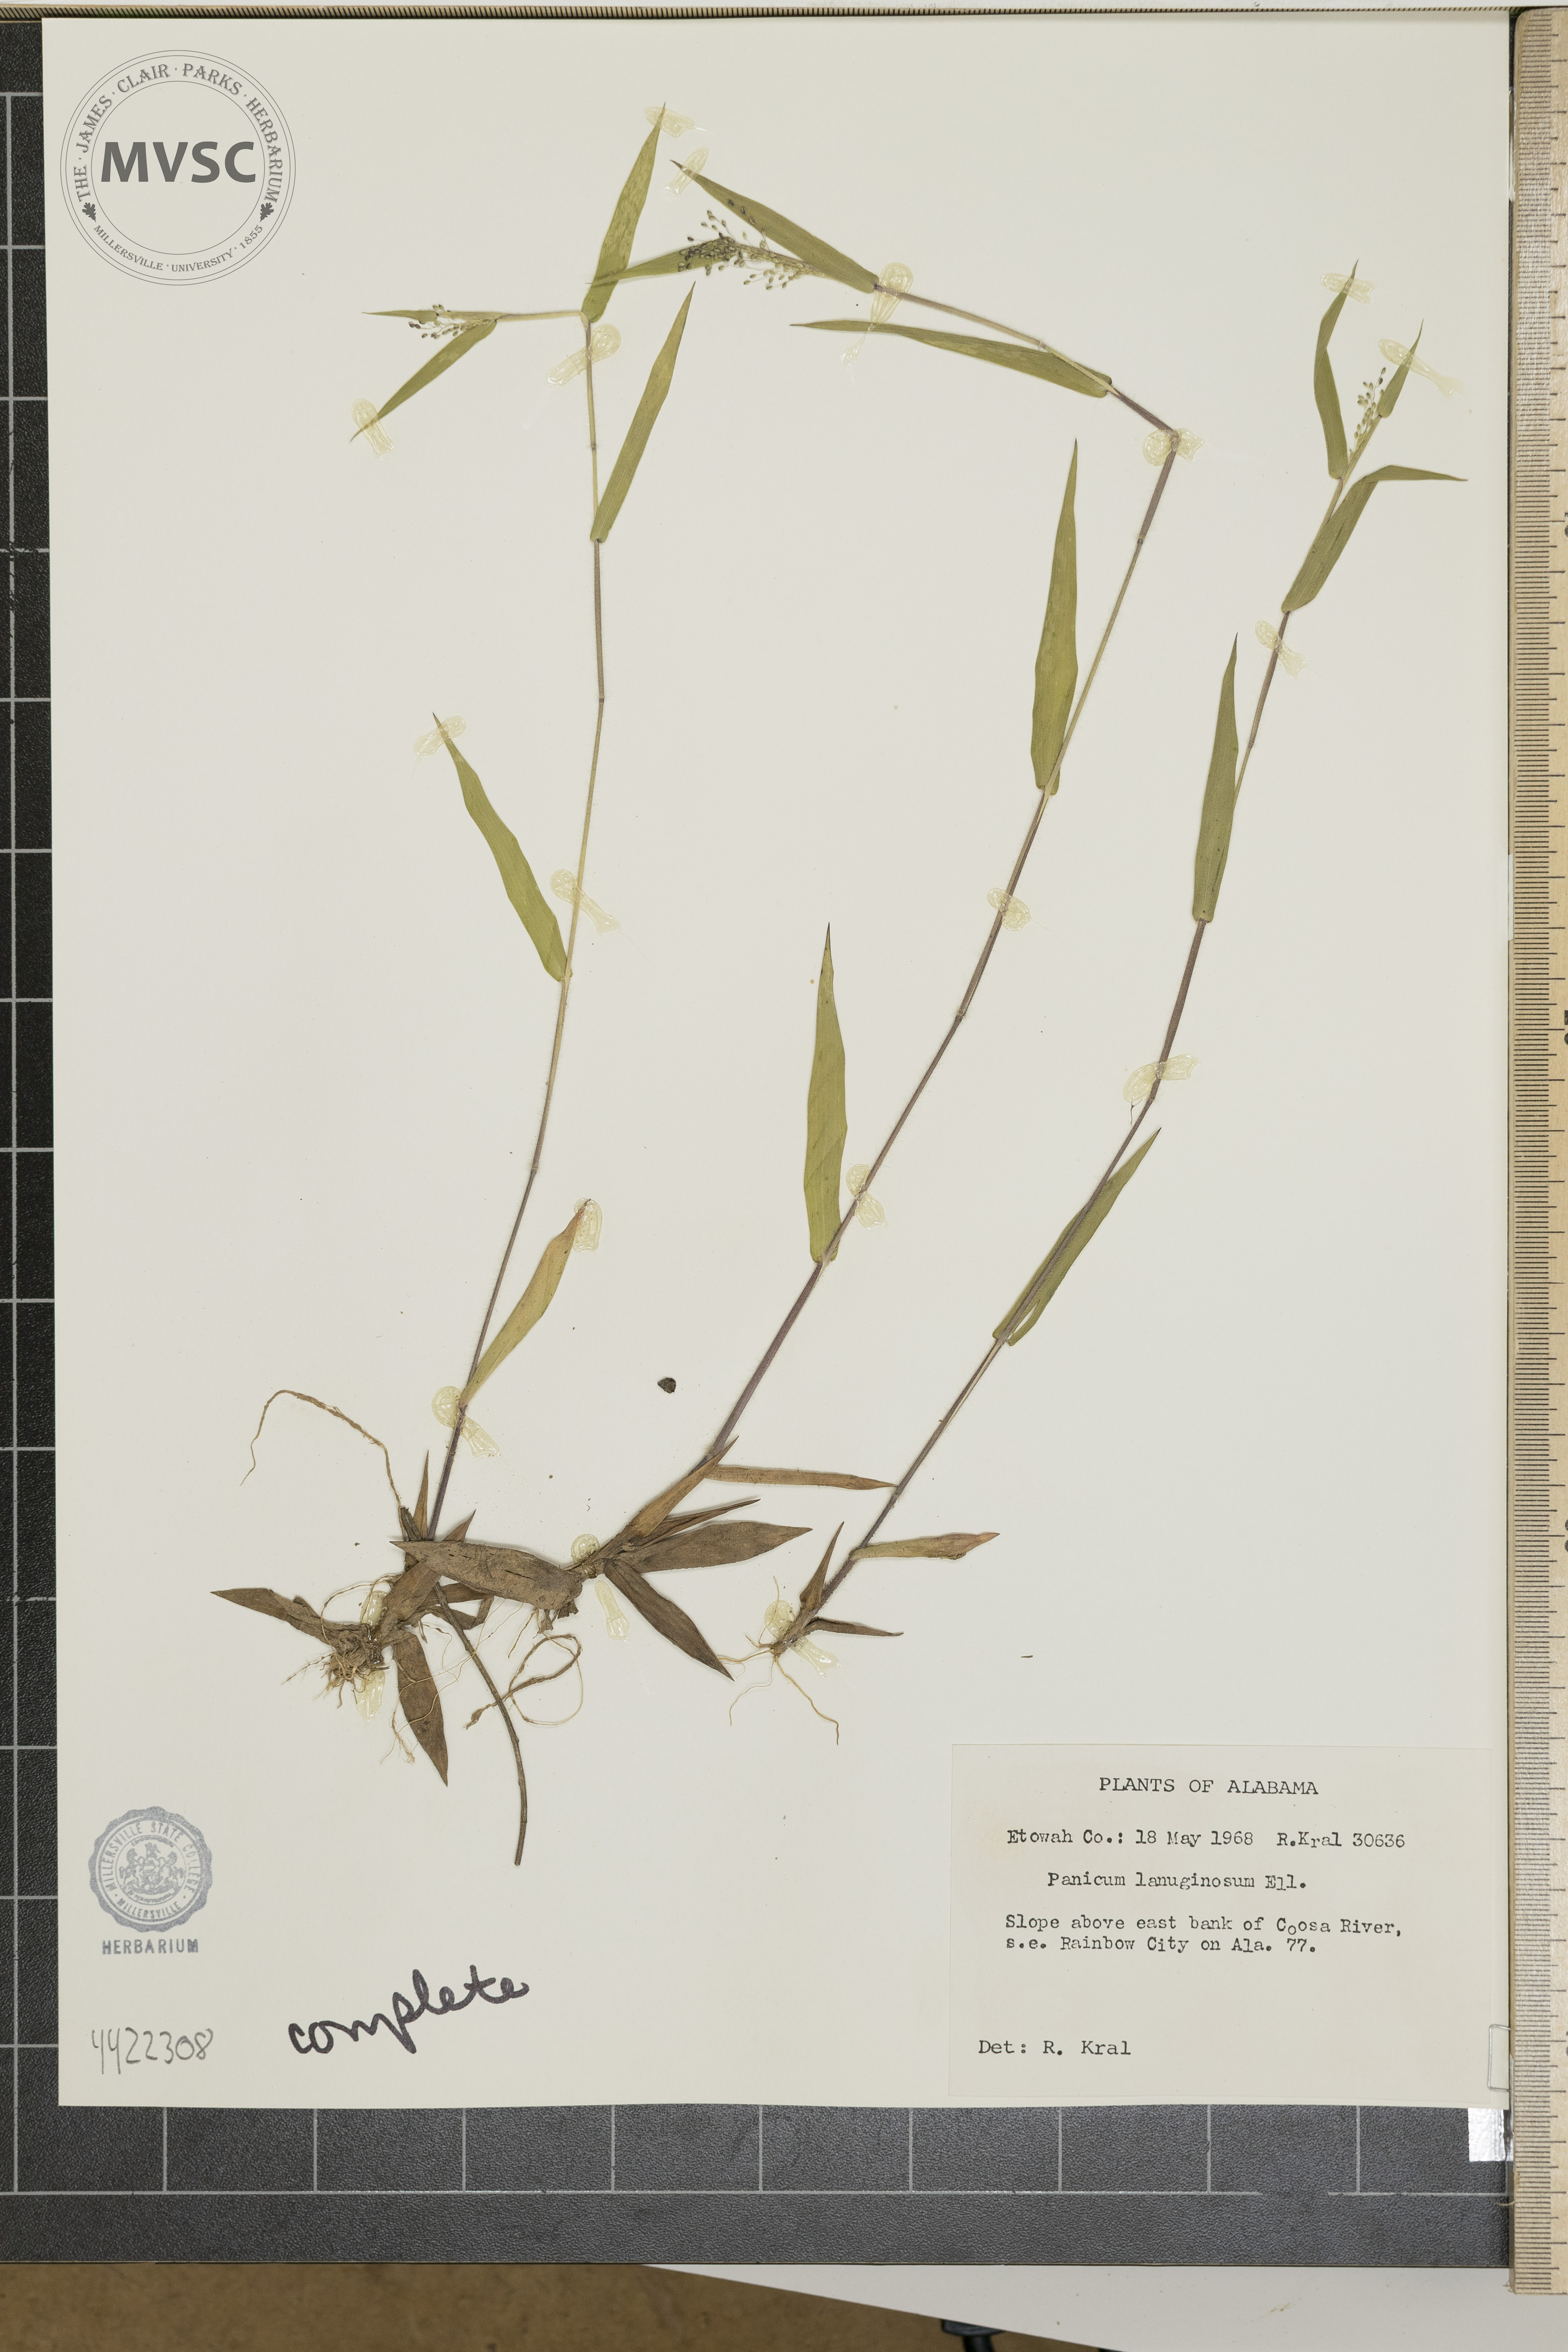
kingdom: Plantae
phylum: Tracheophyta
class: Liliopsida
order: Poales
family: Poaceae
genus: Dichanthelium
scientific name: Dichanthelium lanuginosum
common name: Woolly panicgrass
